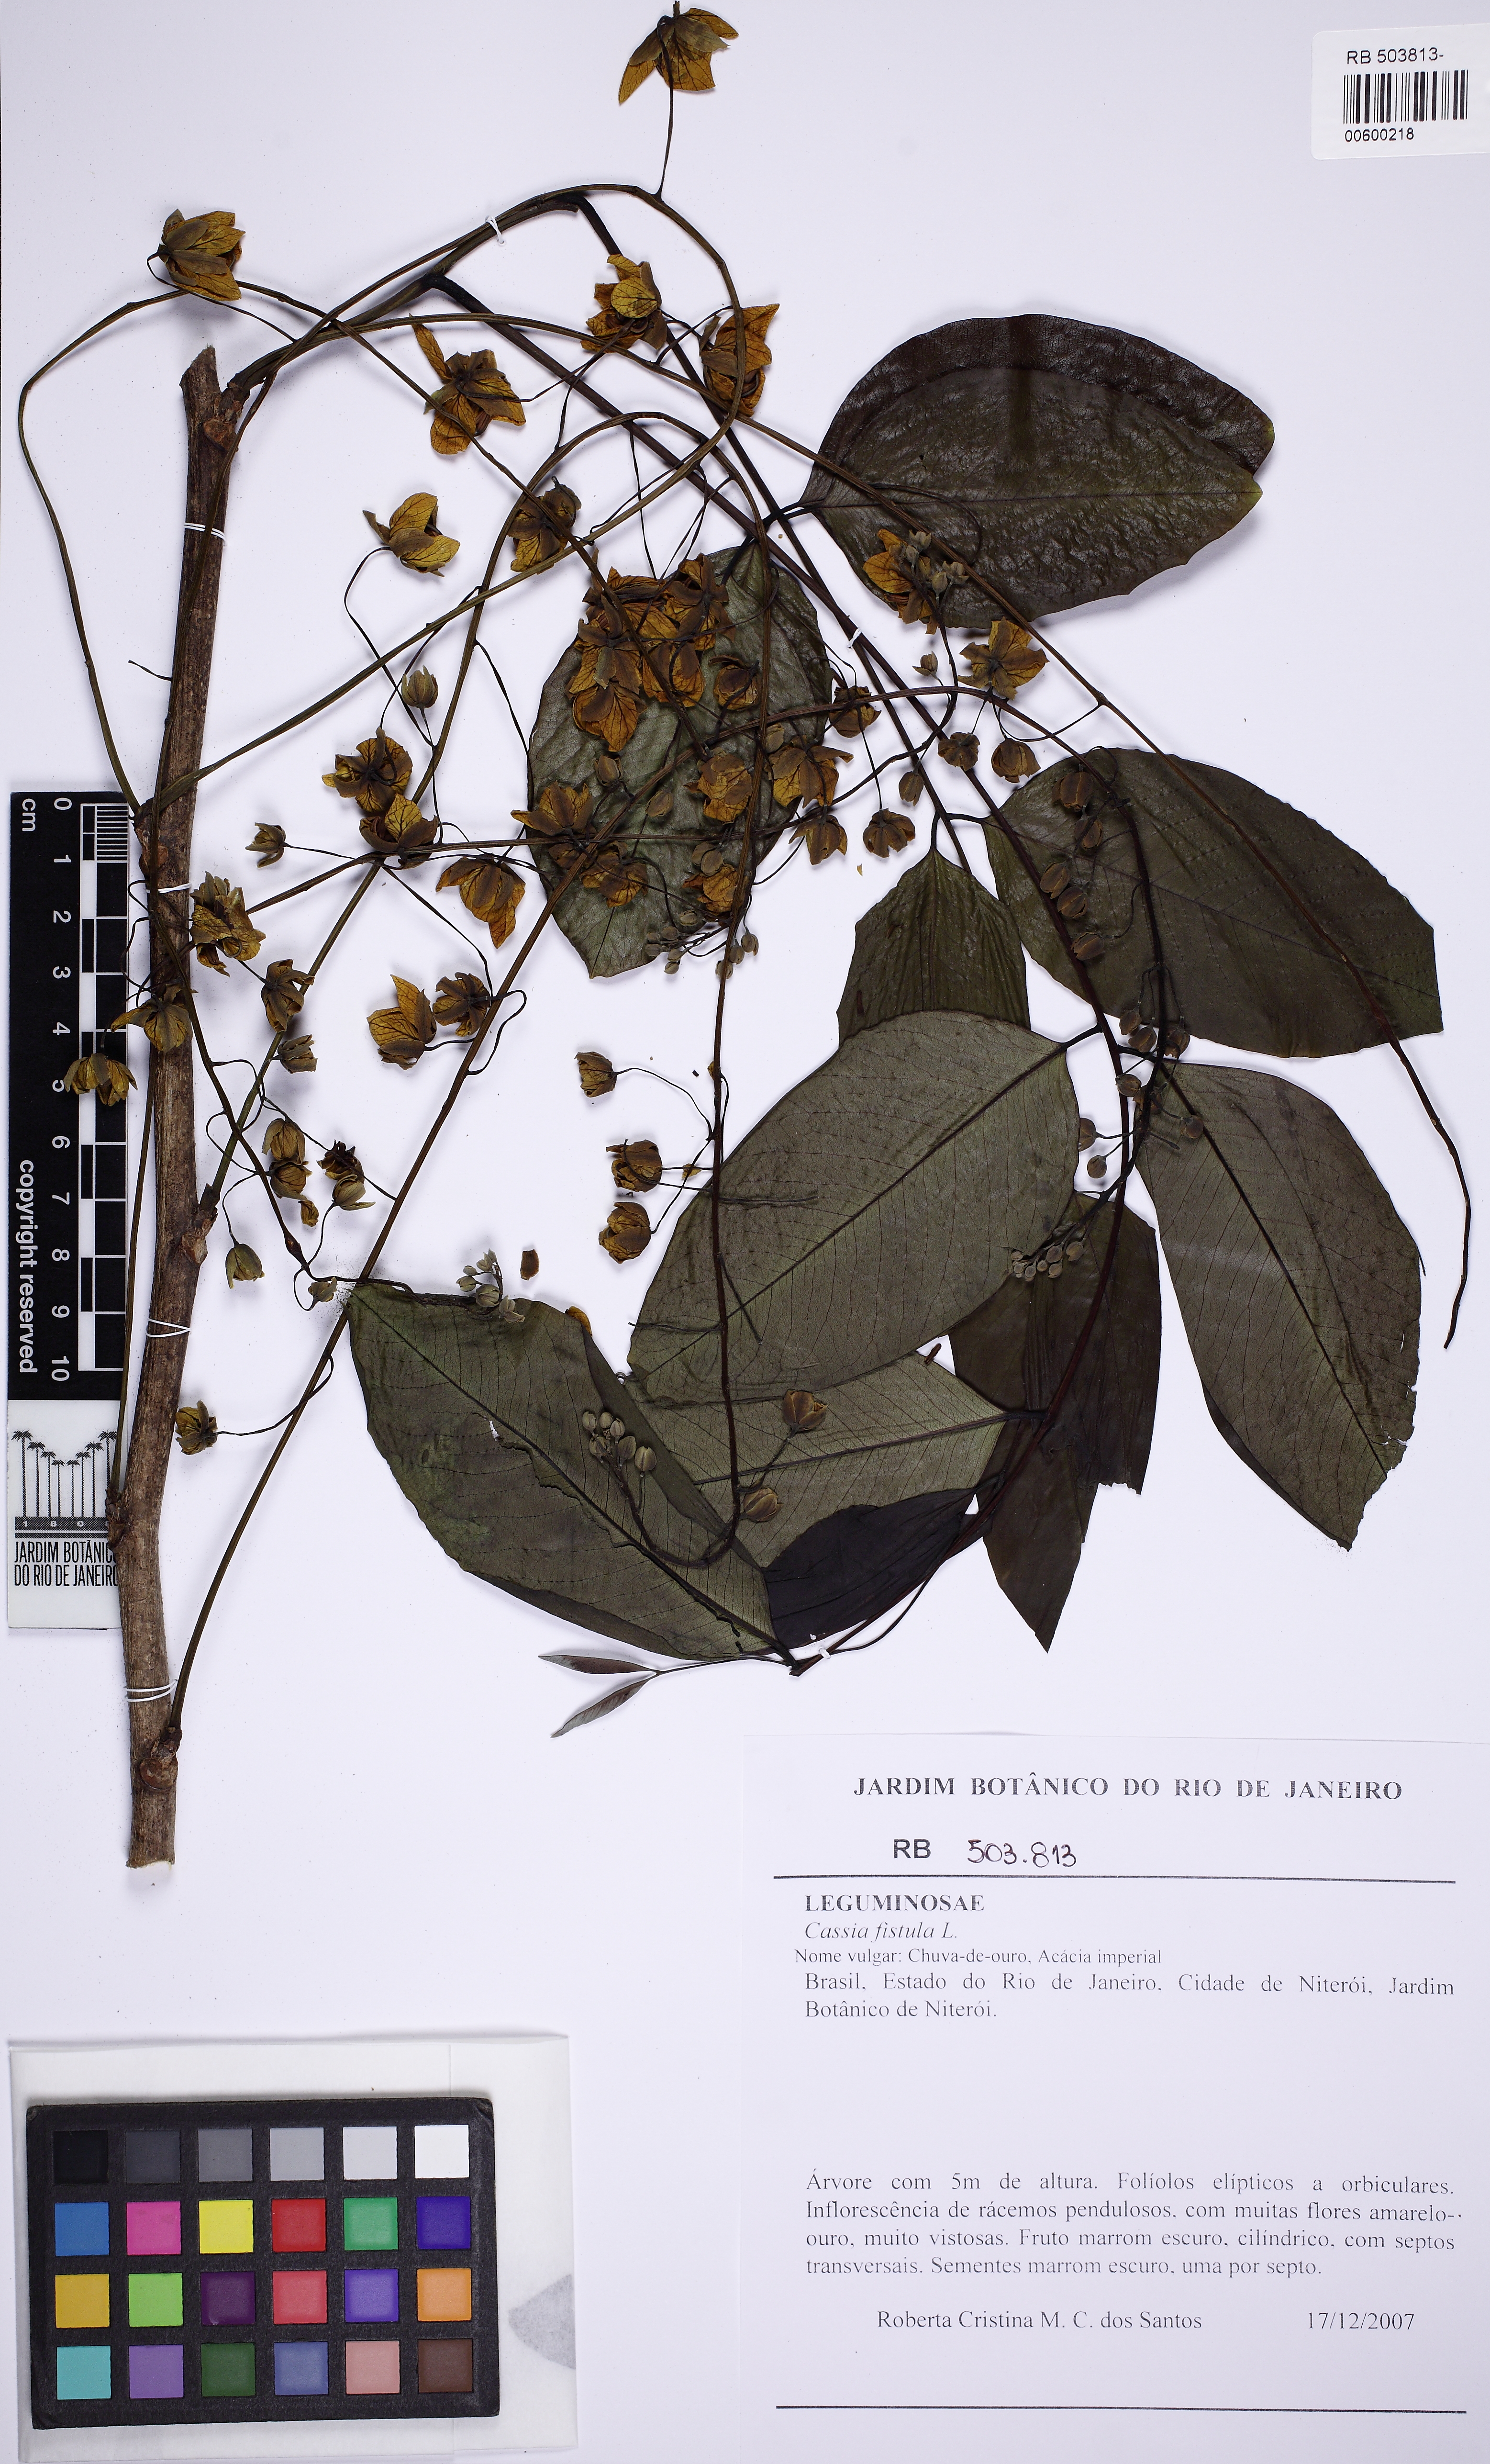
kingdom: Plantae
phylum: Tracheophyta
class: Magnoliopsida
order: Fabales
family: Fabaceae
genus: Cassia
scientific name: Cassia fistula
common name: Golden shower
